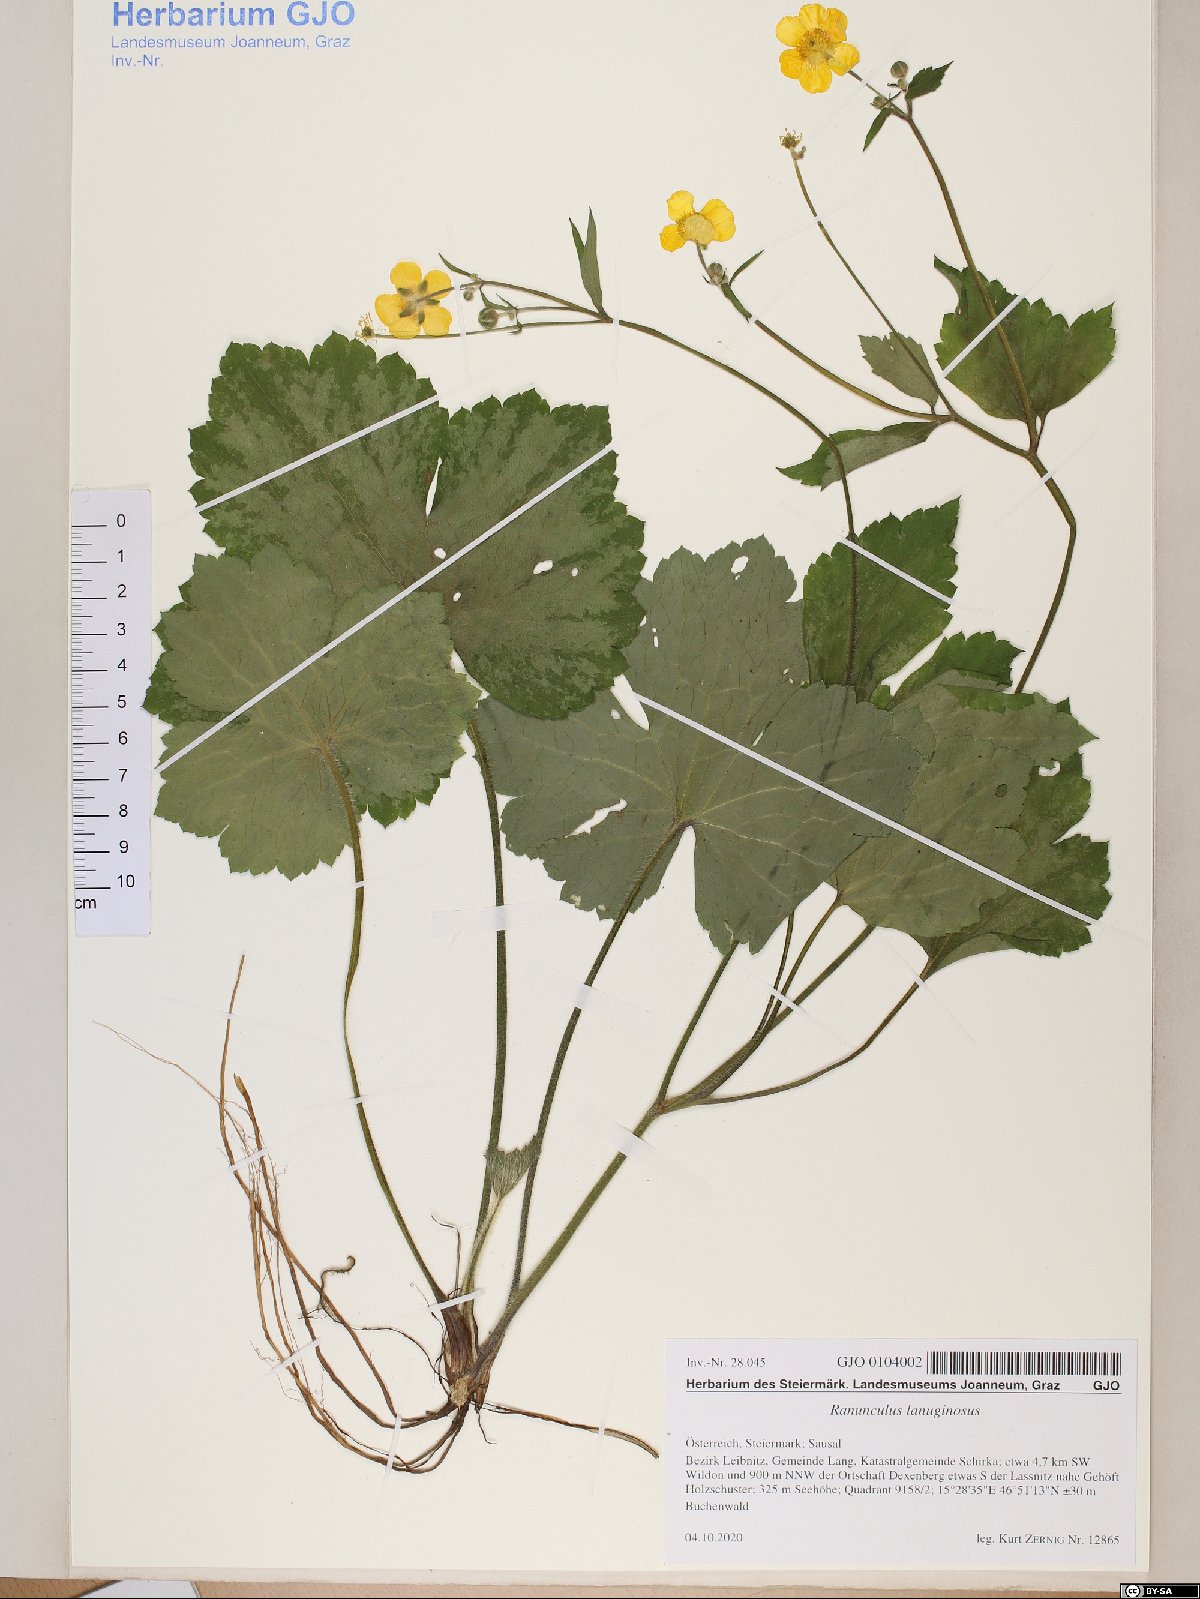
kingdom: Plantae
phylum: Tracheophyta
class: Magnoliopsida
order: Ranunculales
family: Ranunculaceae
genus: Ranunculus
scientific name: Ranunculus lanuginosus
